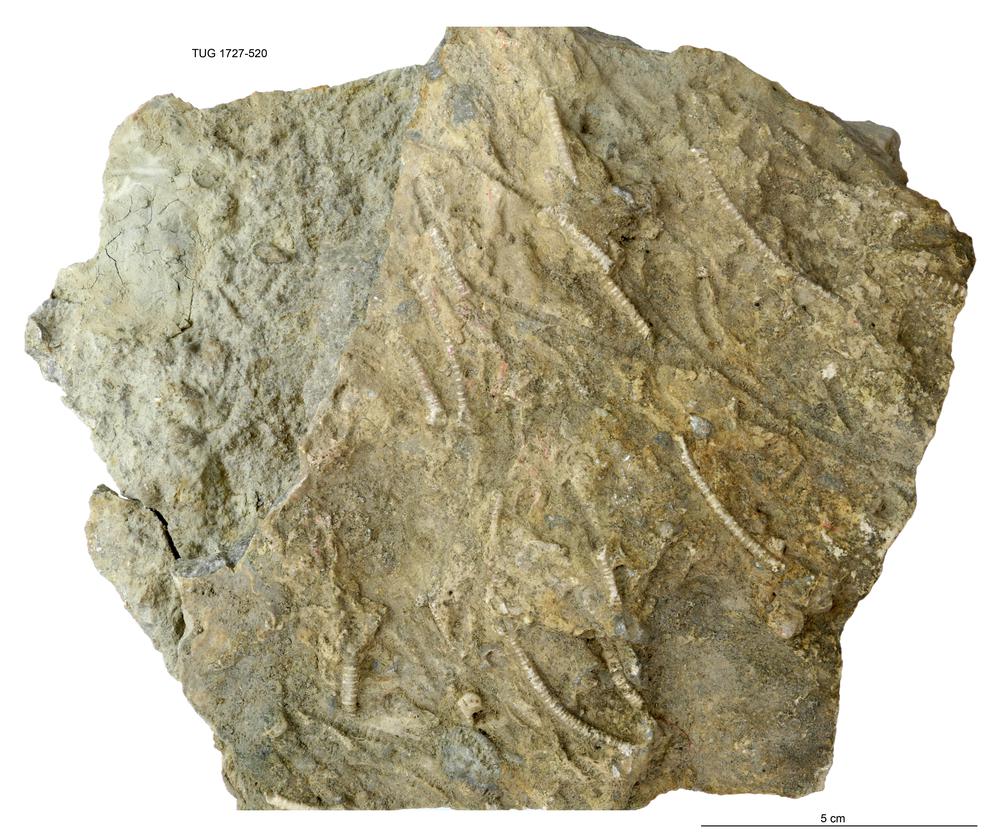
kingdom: Animalia
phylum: Echinodermata
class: Crinoidea
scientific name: Crinoidea
